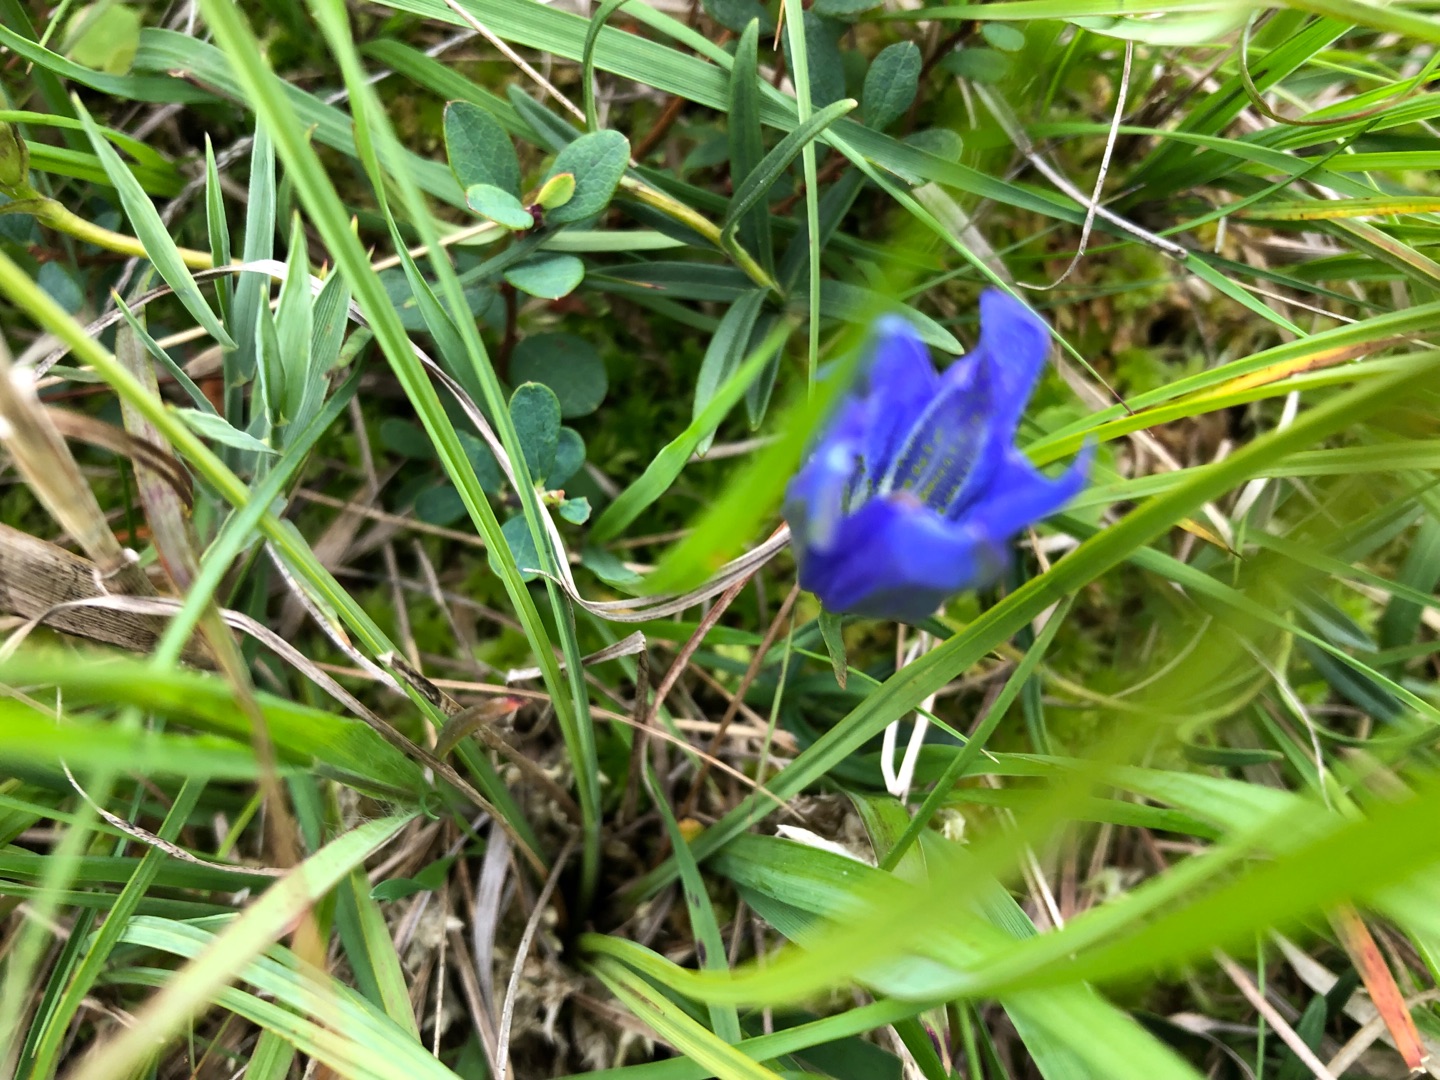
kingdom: Plantae
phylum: Tracheophyta
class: Magnoliopsida
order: Gentianales
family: Gentianaceae
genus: Gentiana
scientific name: Gentiana pneumonanthe
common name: Klokke-ensian
